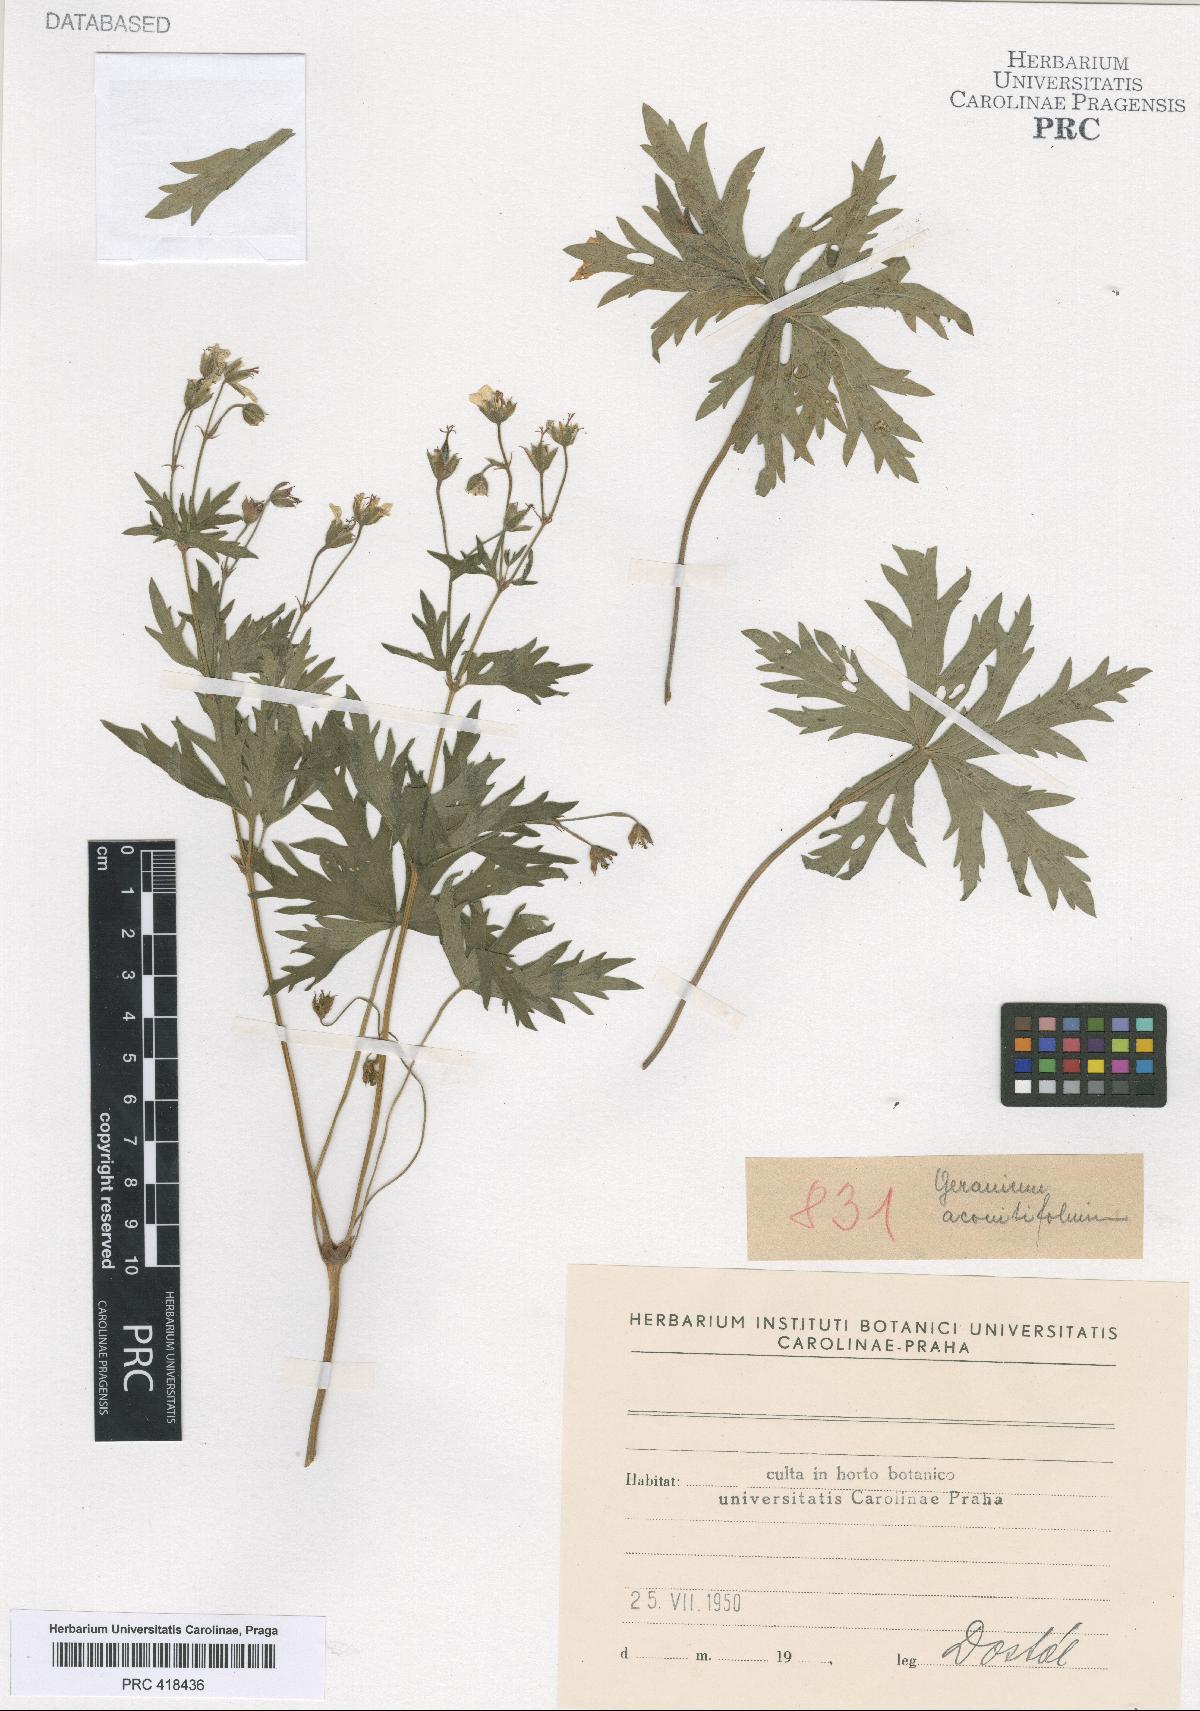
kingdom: Plantae
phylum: Tracheophyta
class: Magnoliopsida
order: Geraniales
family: Geraniaceae
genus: Geranium
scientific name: Geranium rivulare
